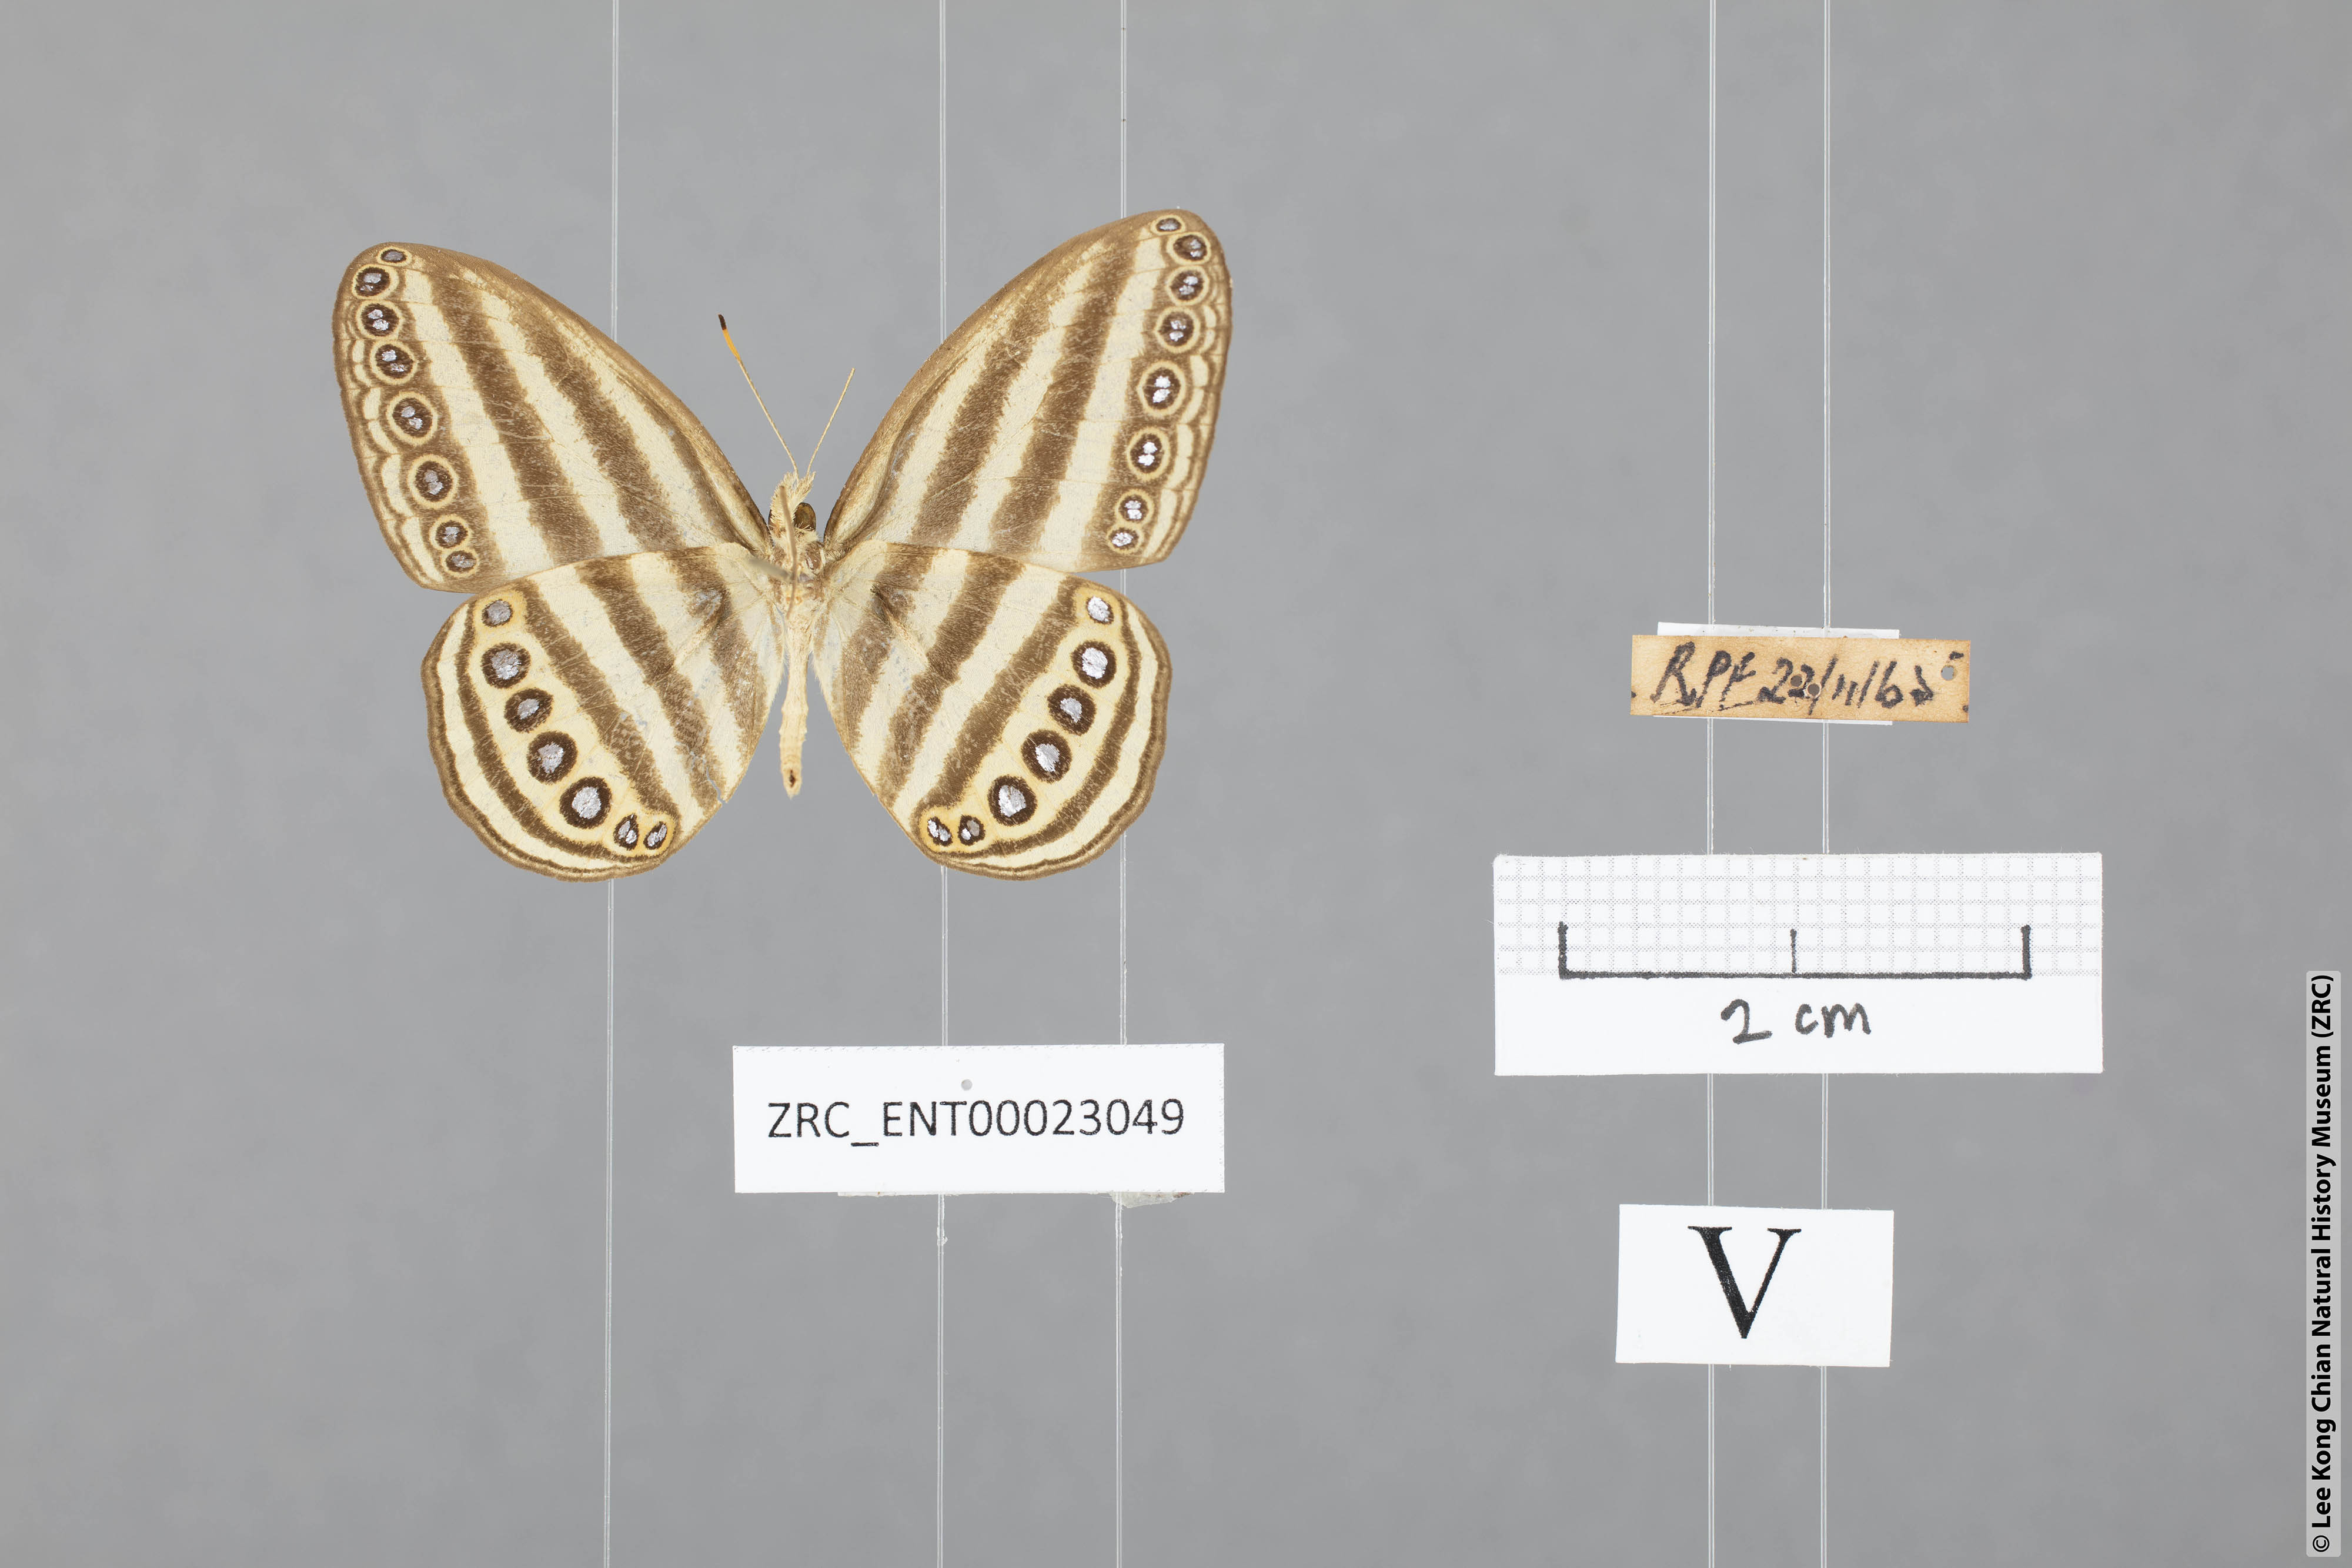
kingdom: Animalia
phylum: Arthropoda
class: Insecta
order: Lepidoptera
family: Nymphalidae
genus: Ragadia
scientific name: Ragadia makata
